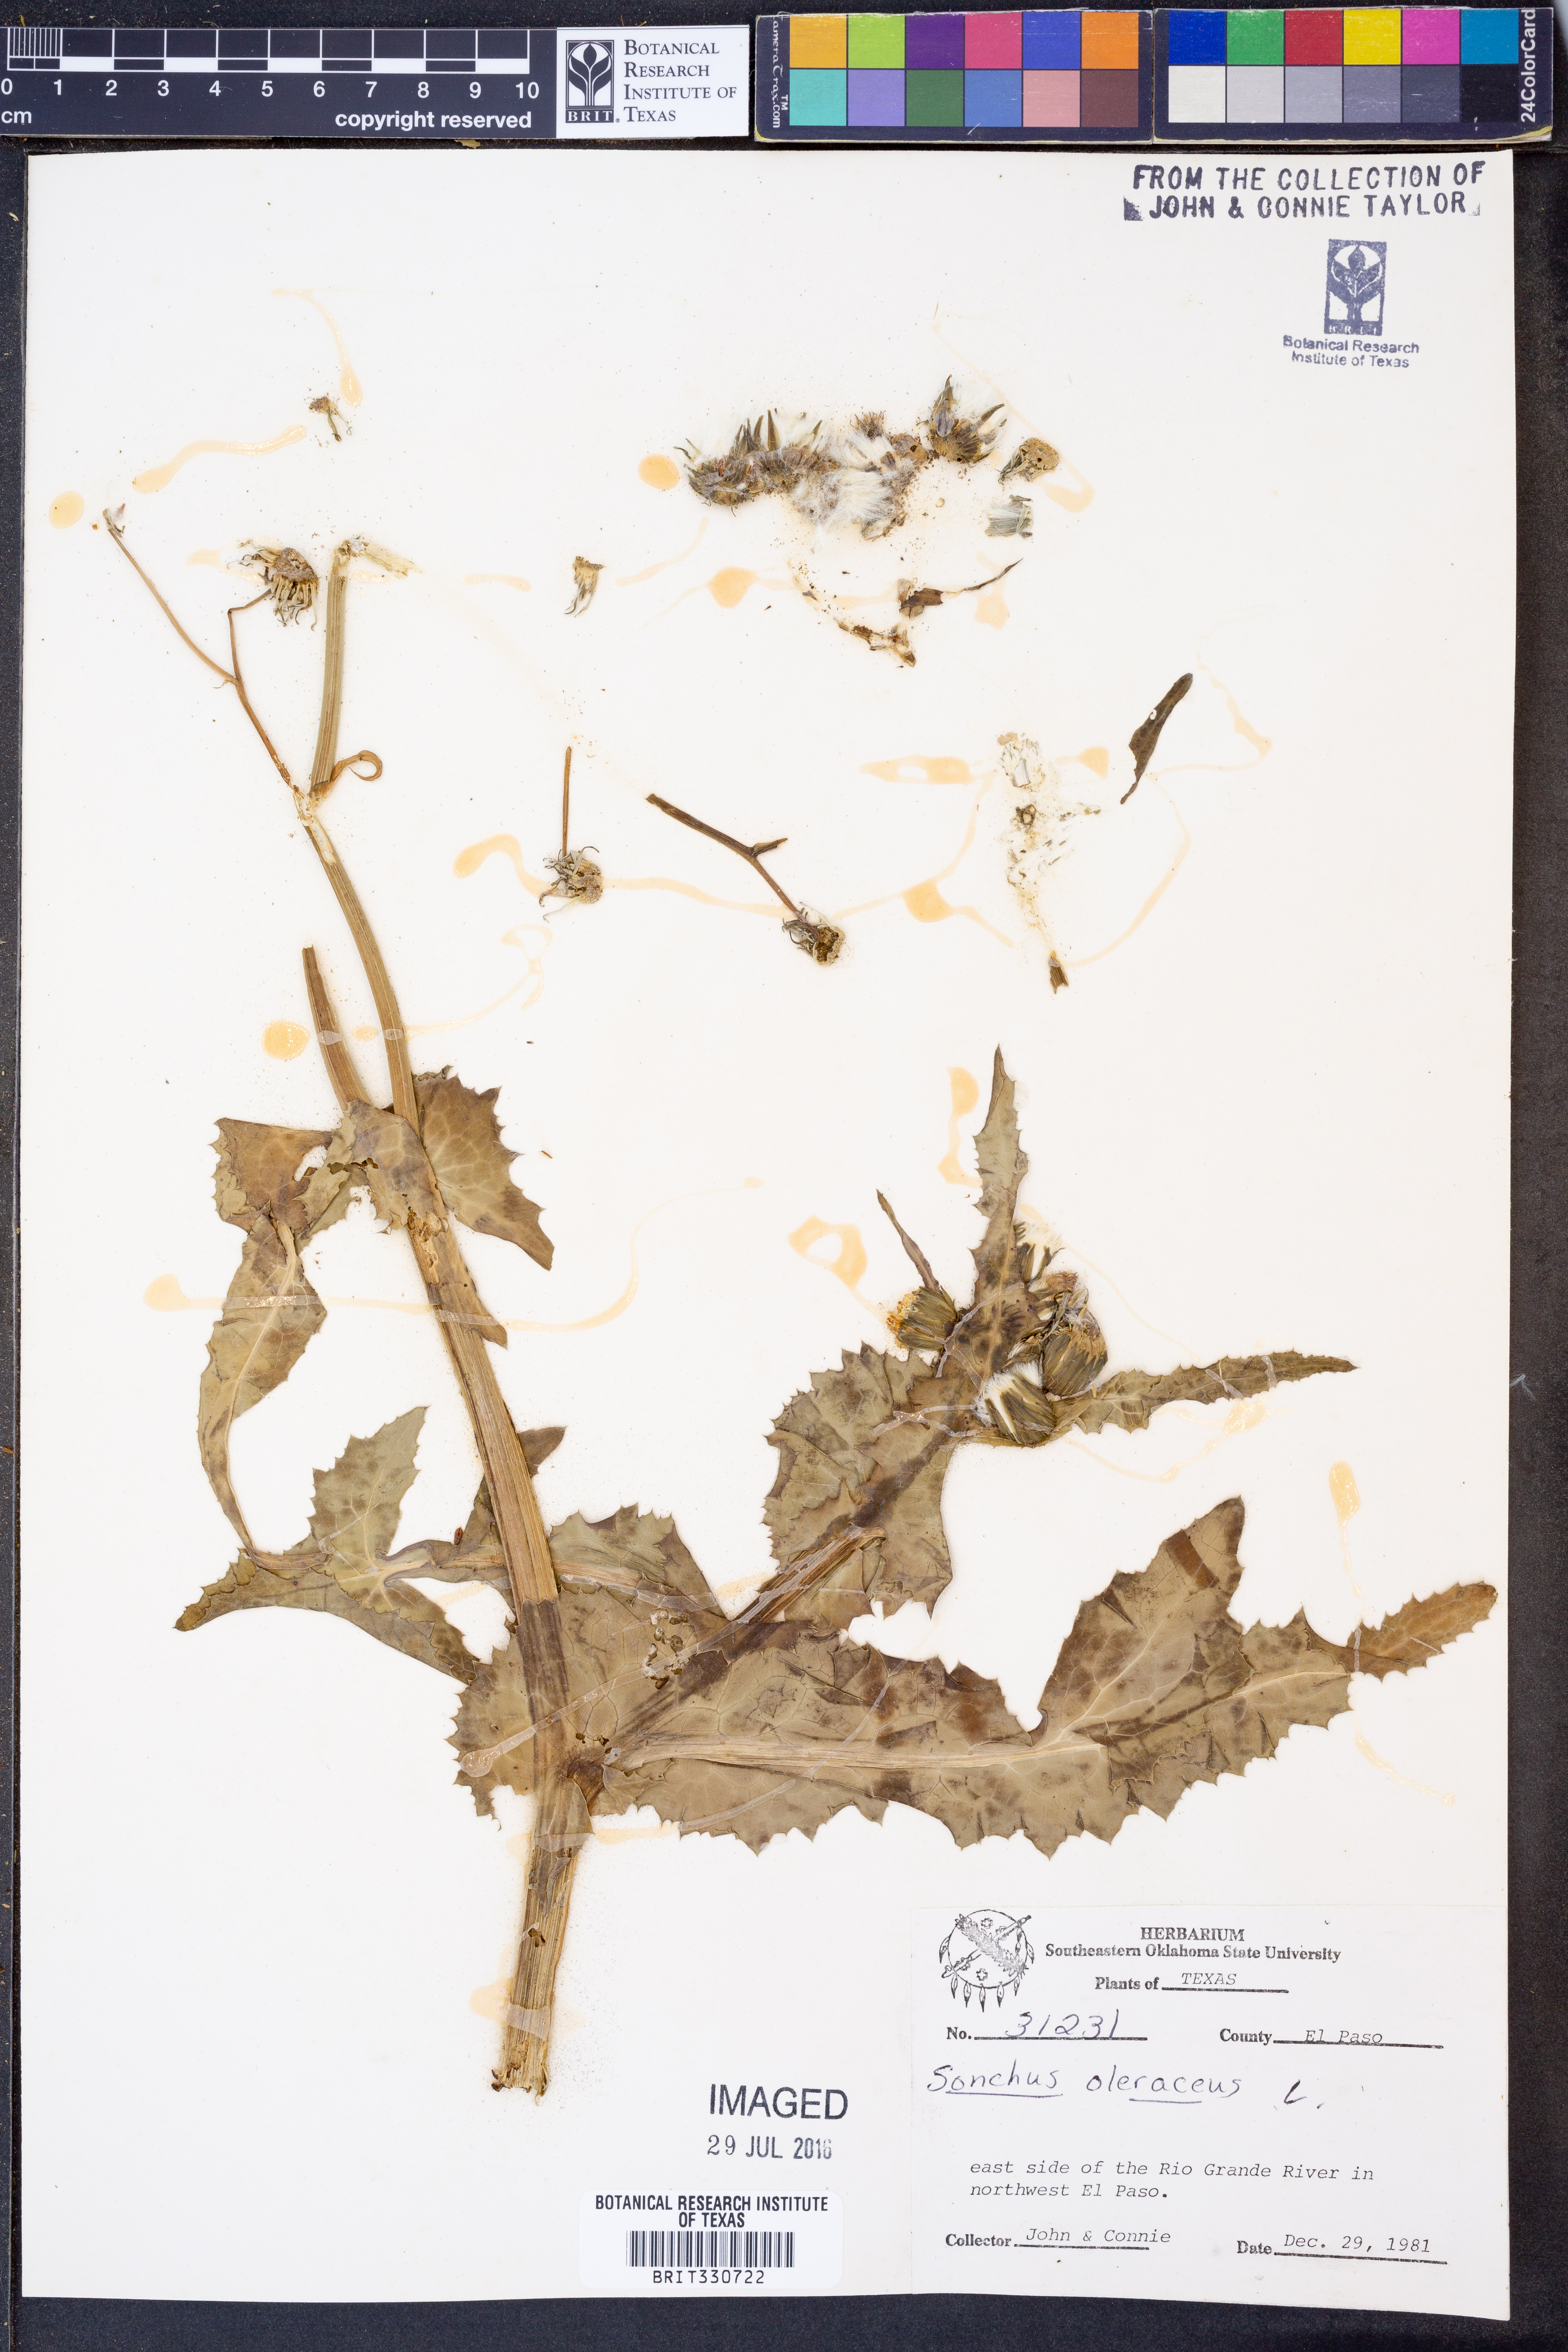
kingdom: Plantae
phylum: Tracheophyta
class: Magnoliopsida
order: Asterales
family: Asteraceae
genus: Sonchus
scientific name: Sonchus oleraceus
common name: Common sowthistle
